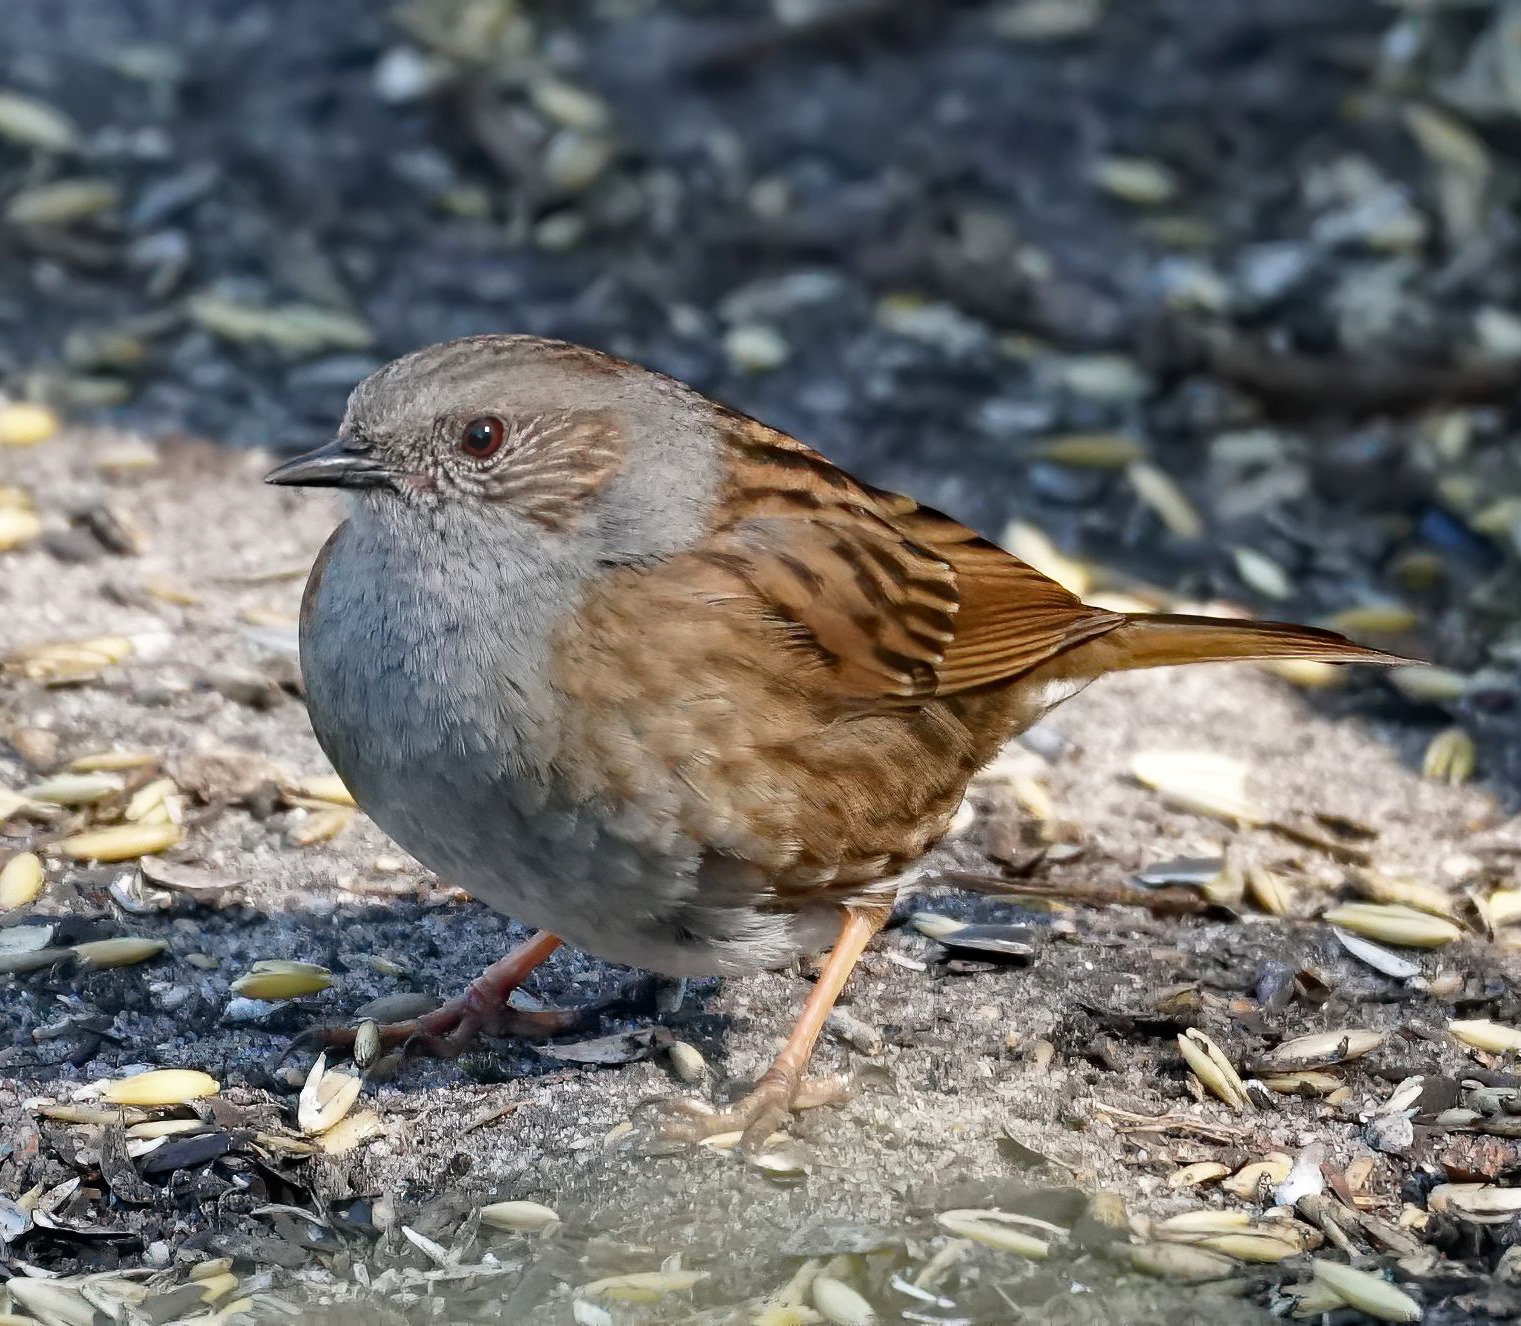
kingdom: Animalia
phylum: Chordata
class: Aves
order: Passeriformes
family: Prunellidae
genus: Prunella
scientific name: Prunella modularis
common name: Jernspurv
